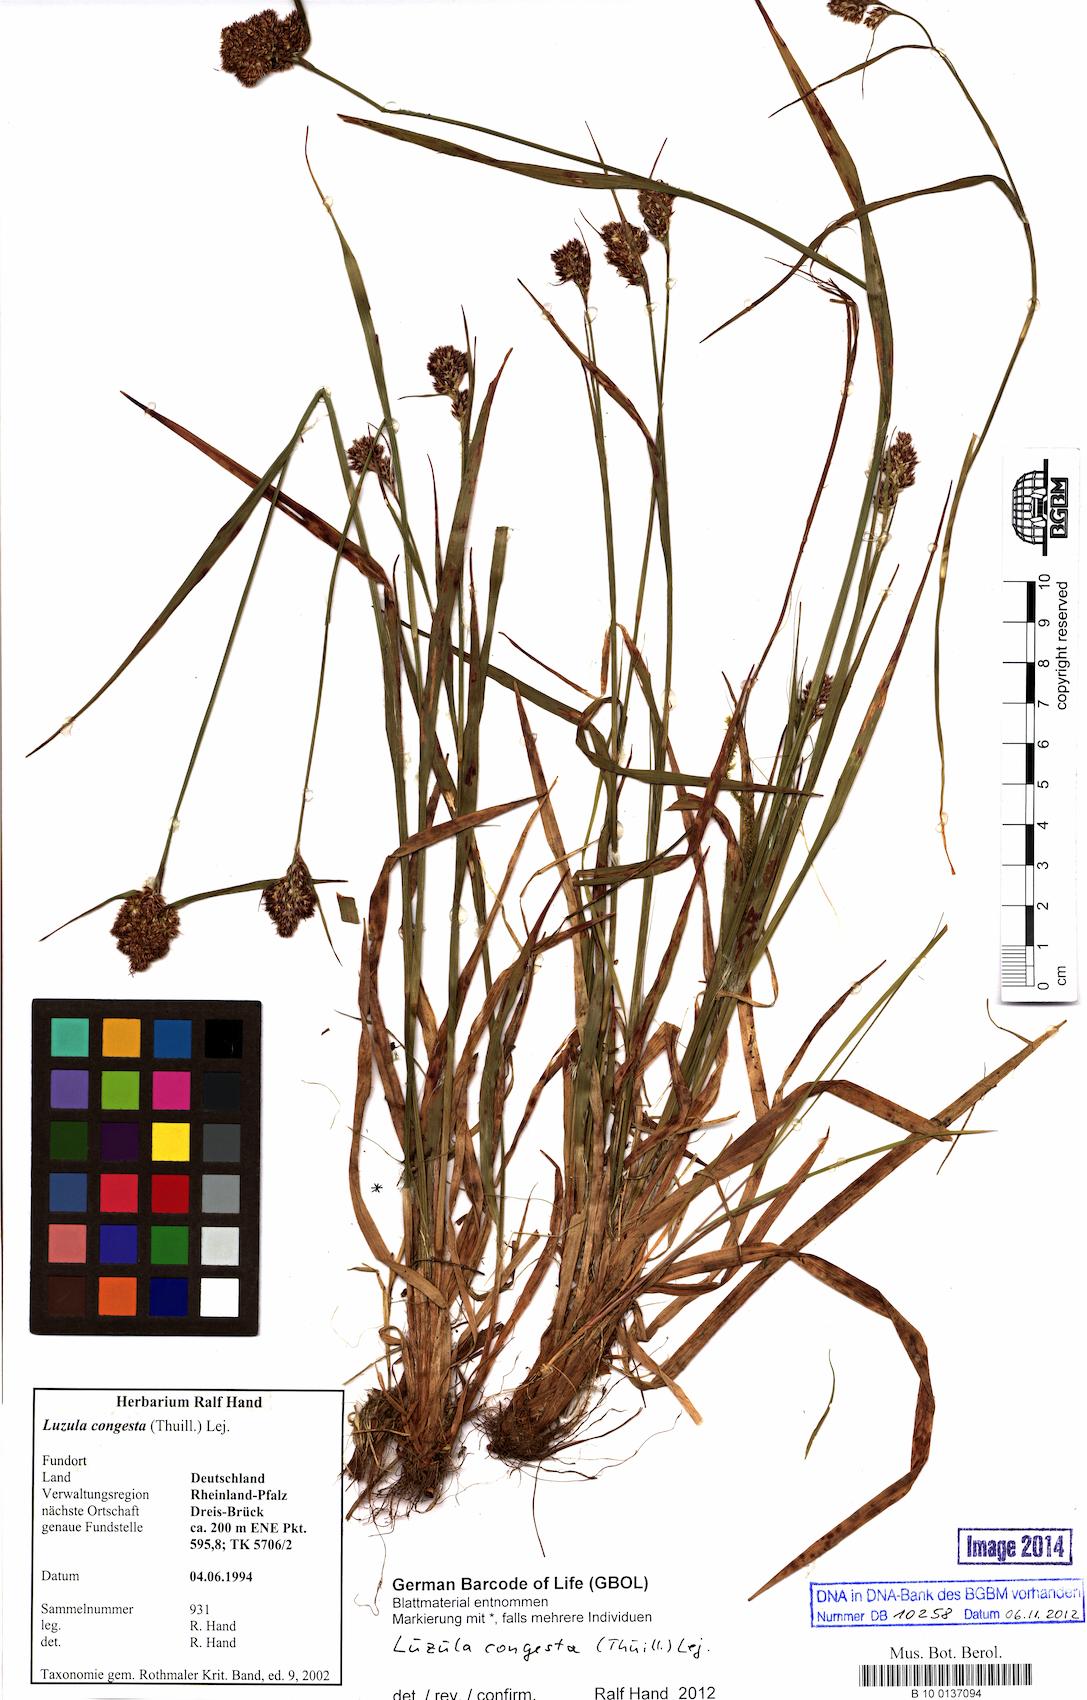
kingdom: Plantae
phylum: Tracheophyta
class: Liliopsida
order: Poales
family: Juncaceae
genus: Luzula
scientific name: Luzula congesta
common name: Heath woodrush
